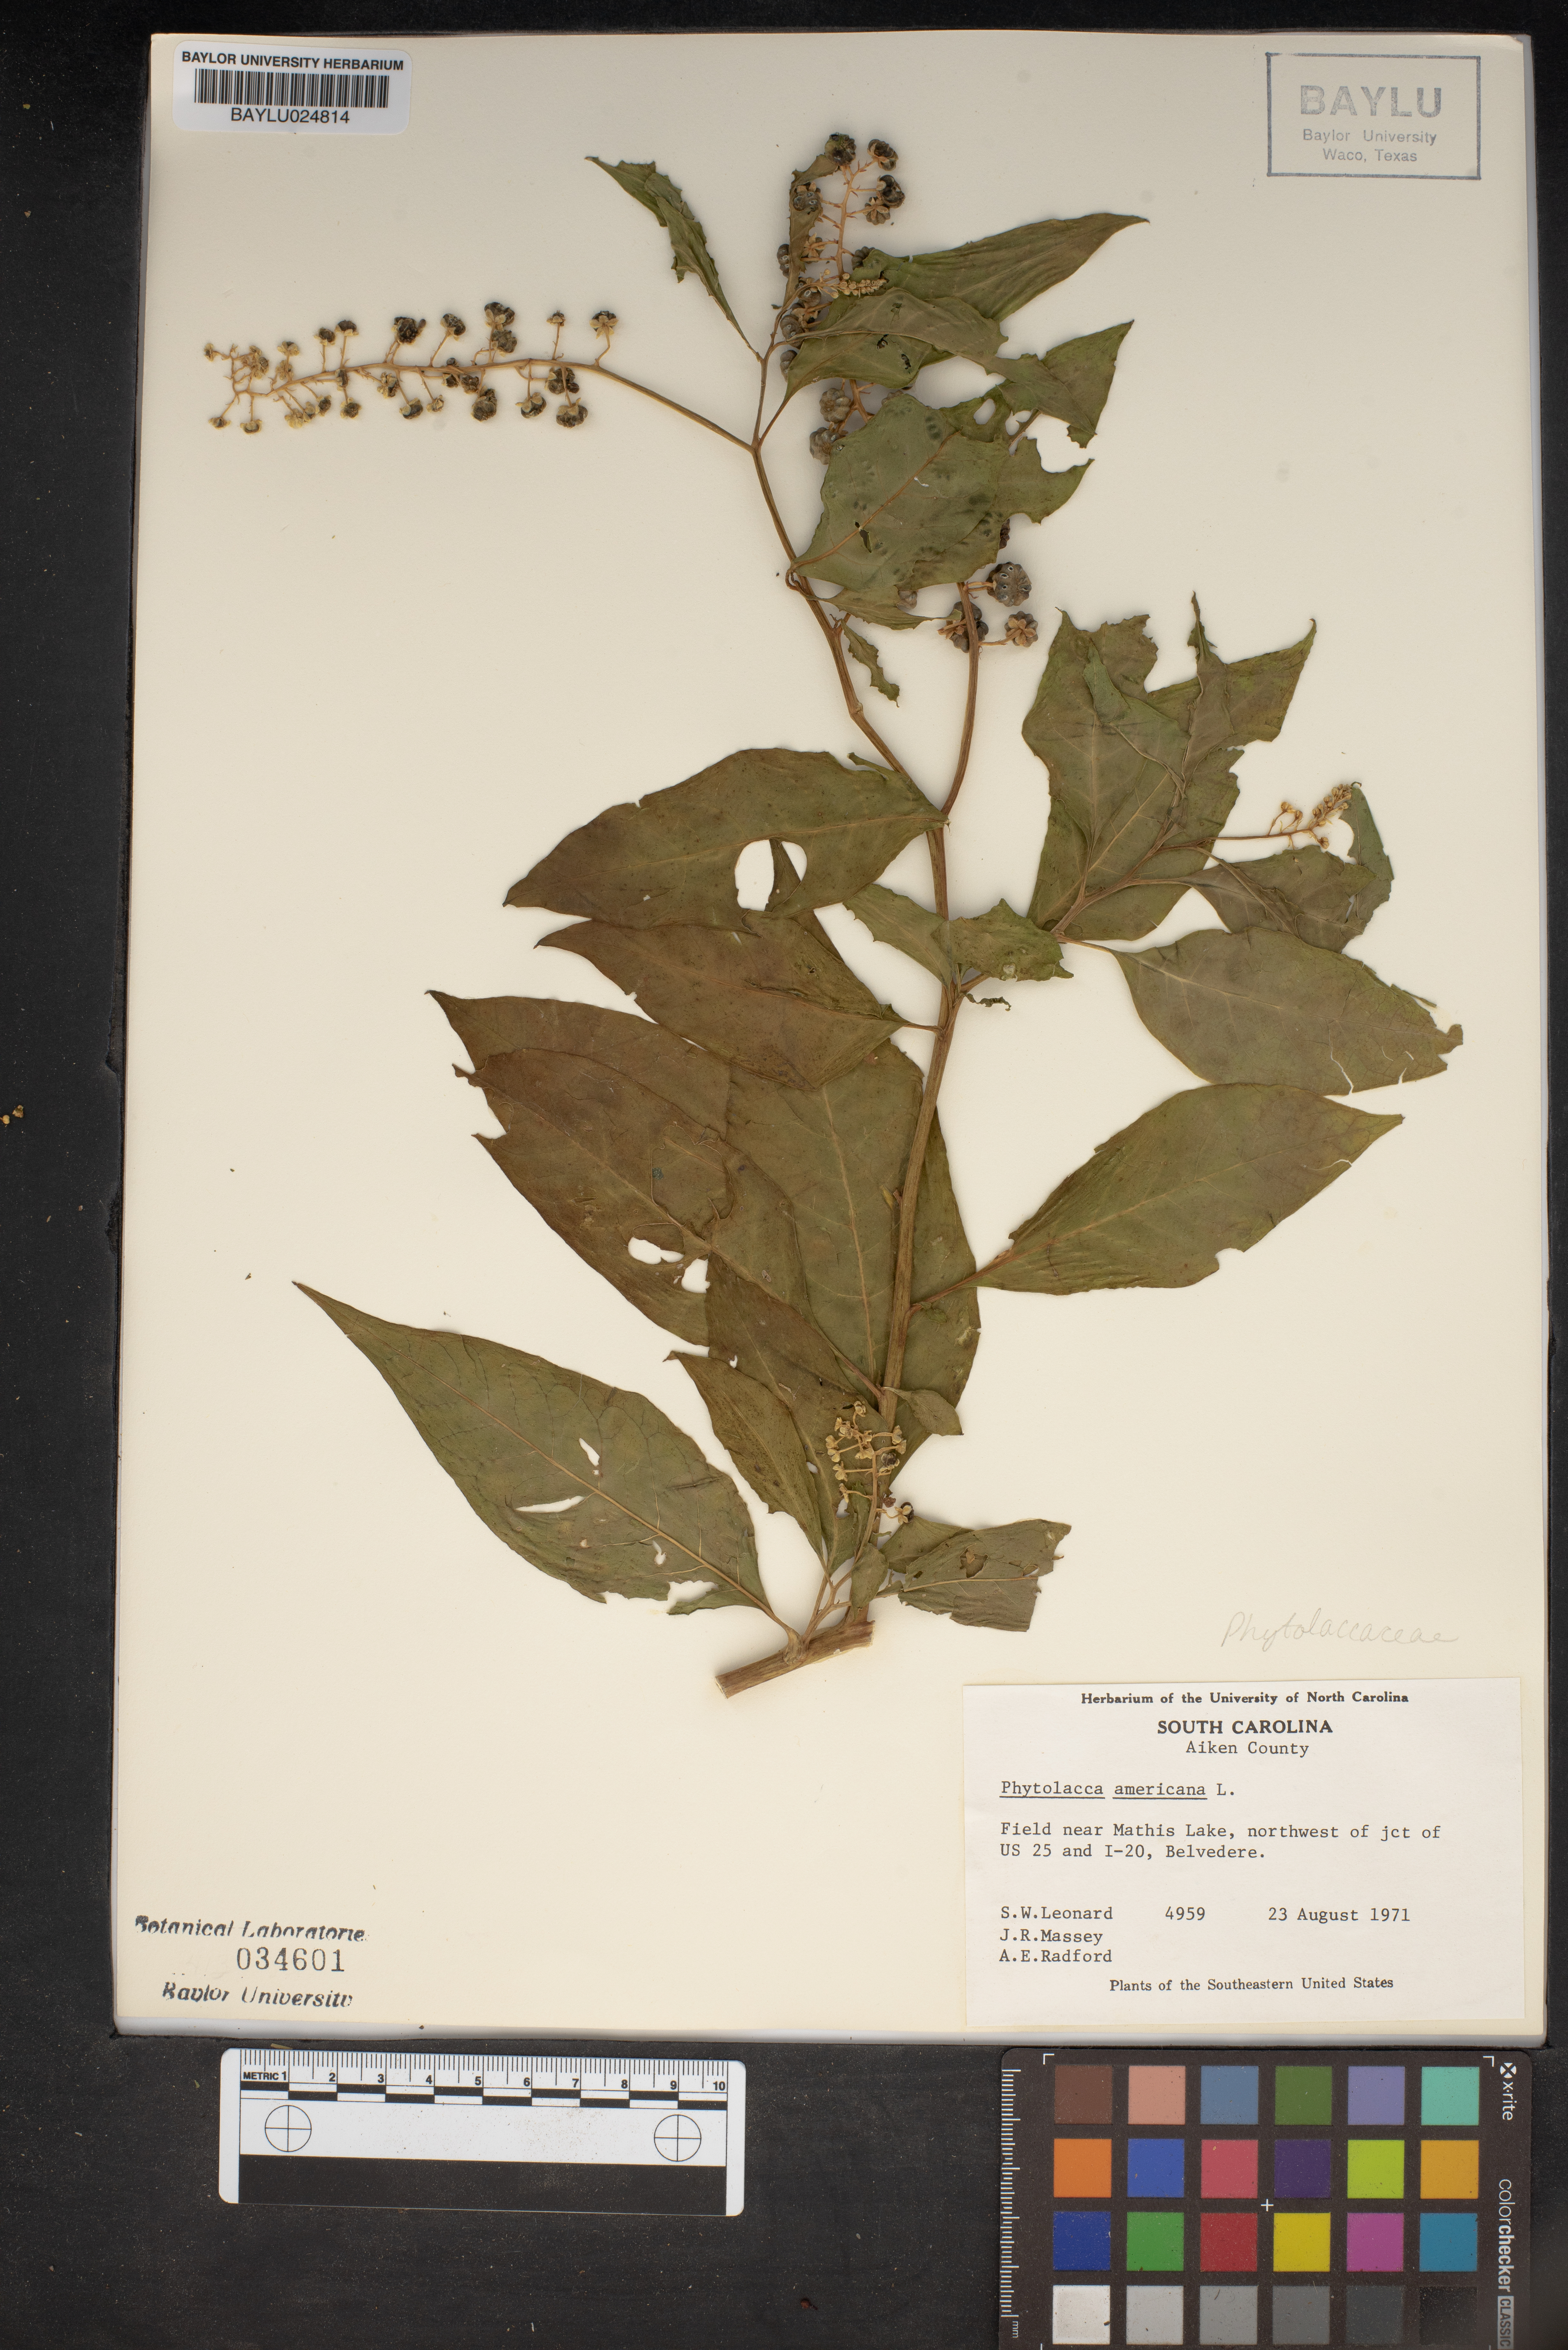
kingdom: Plantae
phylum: Tracheophyta
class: Magnoliopsida
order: Caryophyllales
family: Phytolaccaceae
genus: Phytolacca
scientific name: Phytolacca americana
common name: American pokeweed
